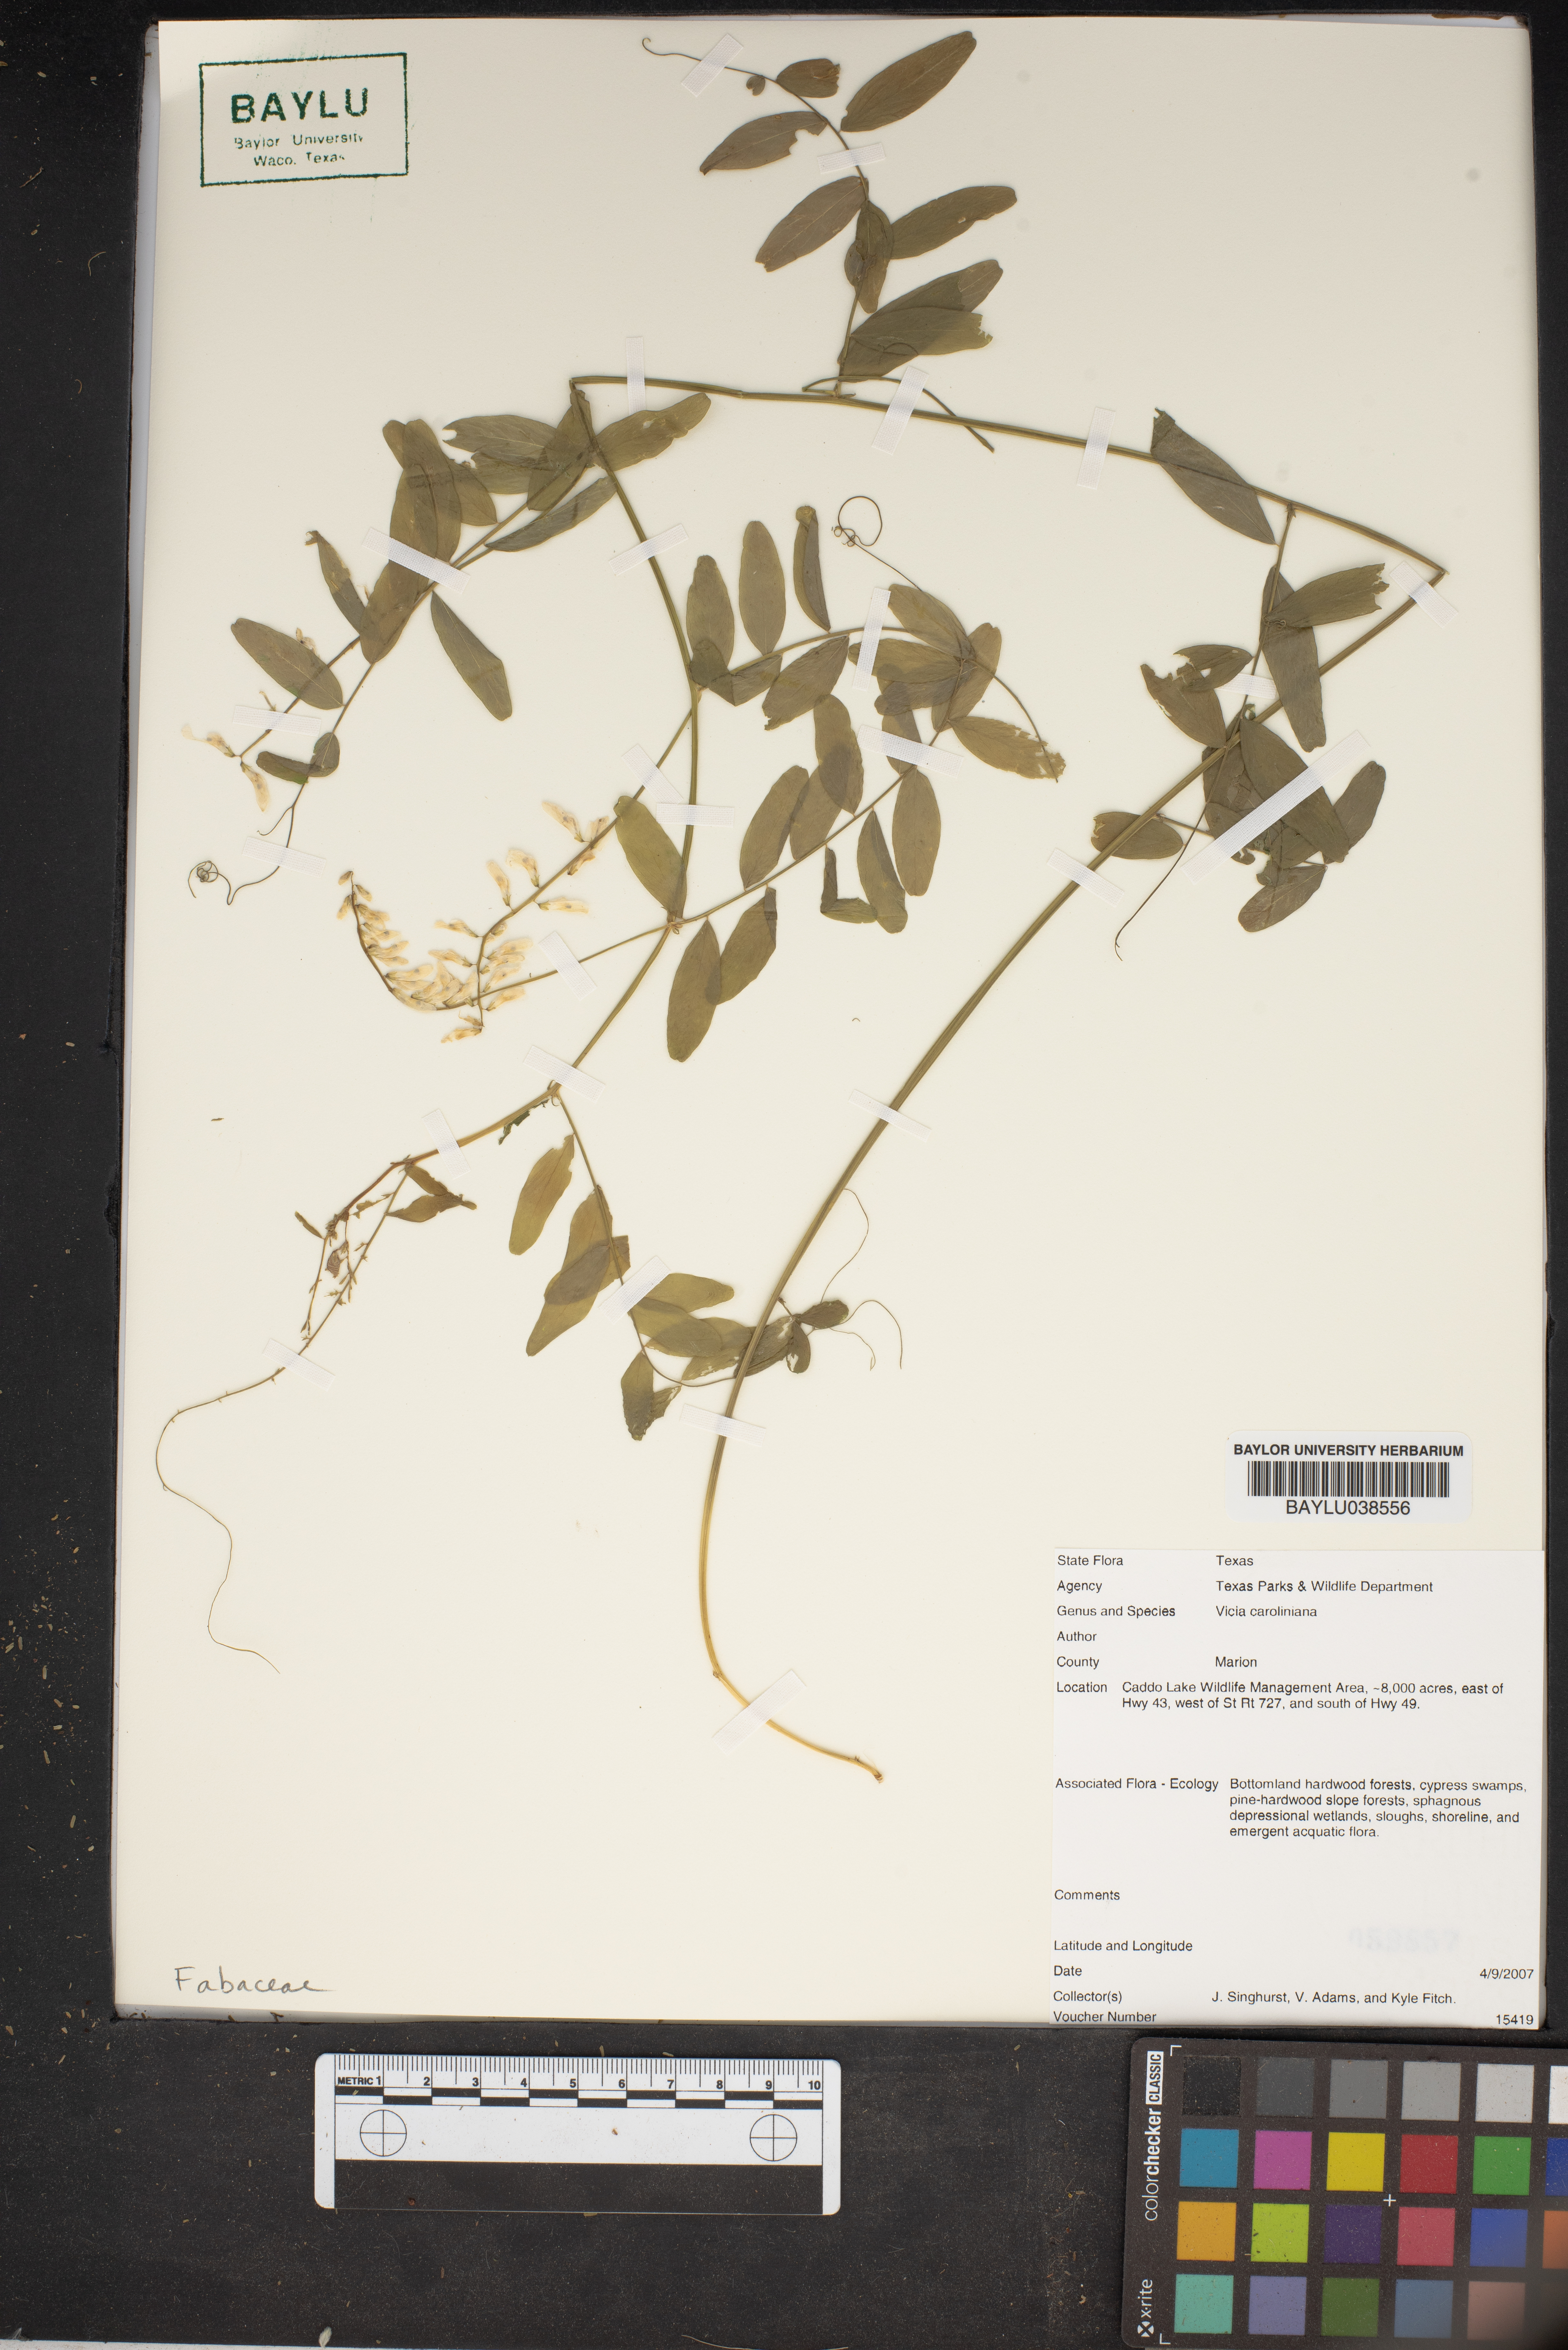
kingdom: Plantae
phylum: Tracheophyta
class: Magnoliopsida
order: Fabales
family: Fabaceae
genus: Vicia
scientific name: Vicia caroliniana
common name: Carolina vetch
